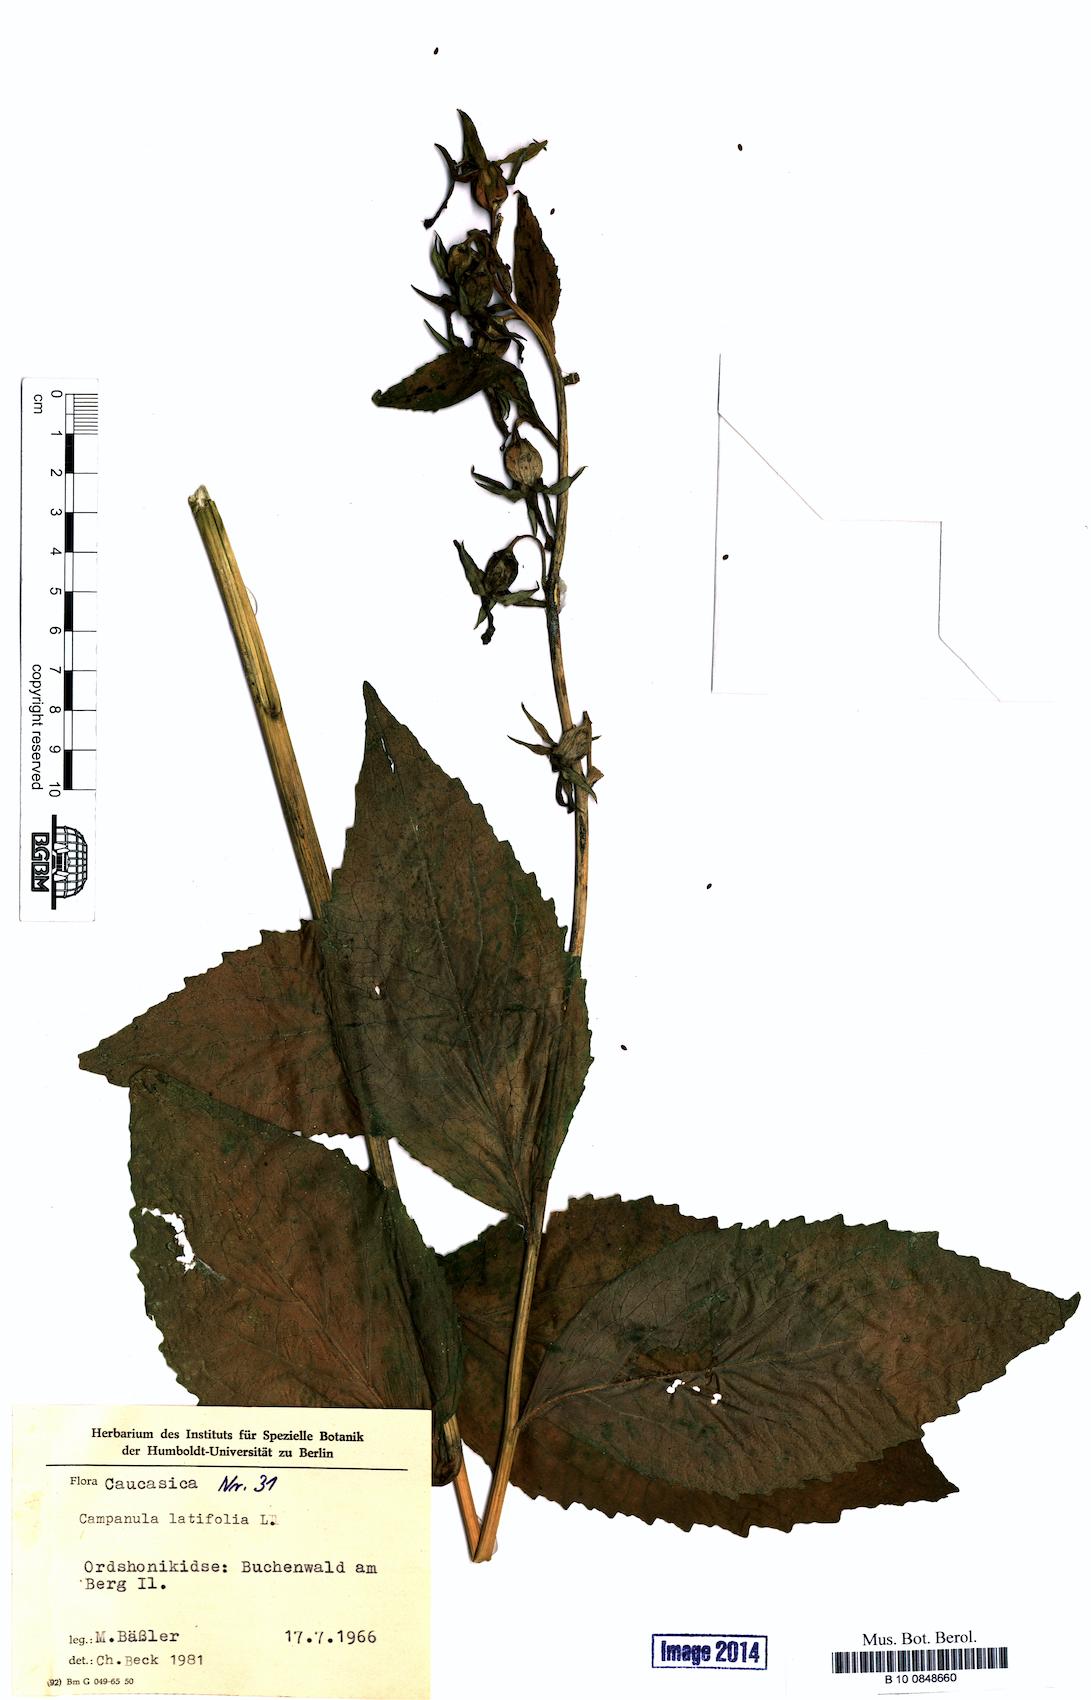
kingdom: Plantae
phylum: Tracheophyta
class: Magnoliopsida
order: Asterales
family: Campanulaceae
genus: Campanula
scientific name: Campanula latifolia
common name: Giant bellflower
